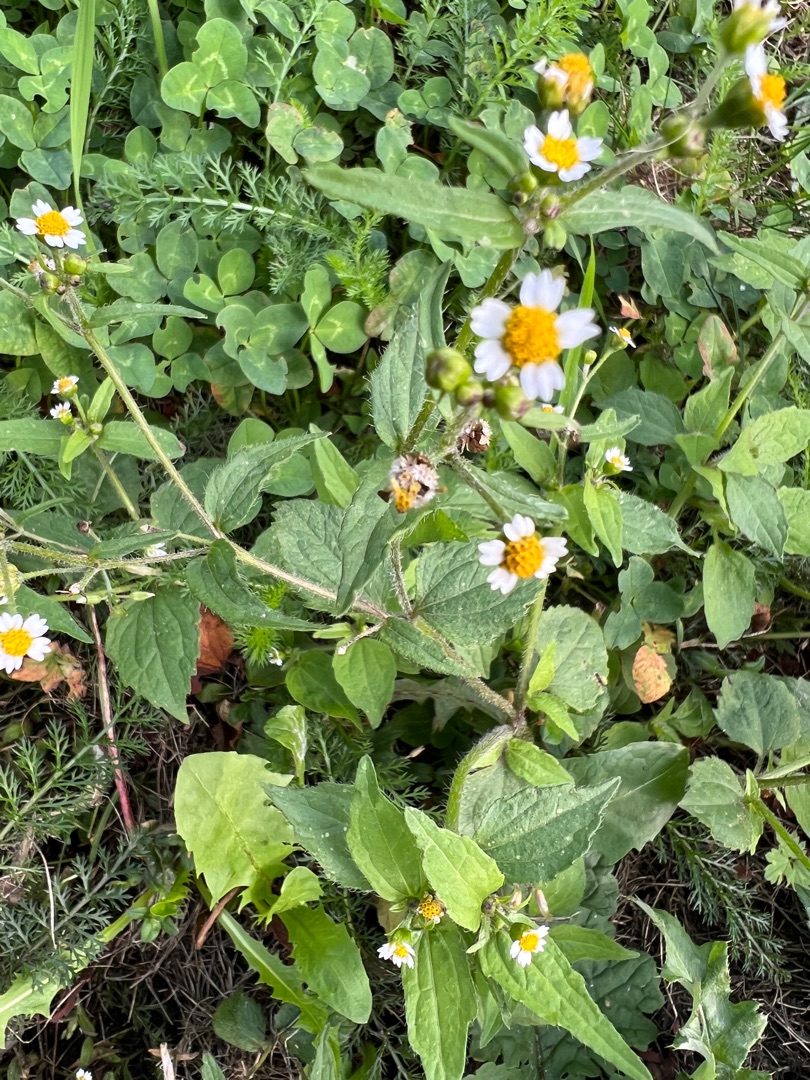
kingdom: Plantae
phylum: Tracheophyta
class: Magnoliopsida
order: Asterales
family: Asteraceae
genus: Galinsoga
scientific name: Galinsoga quadriradiata
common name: Kirtel-kortstråle
